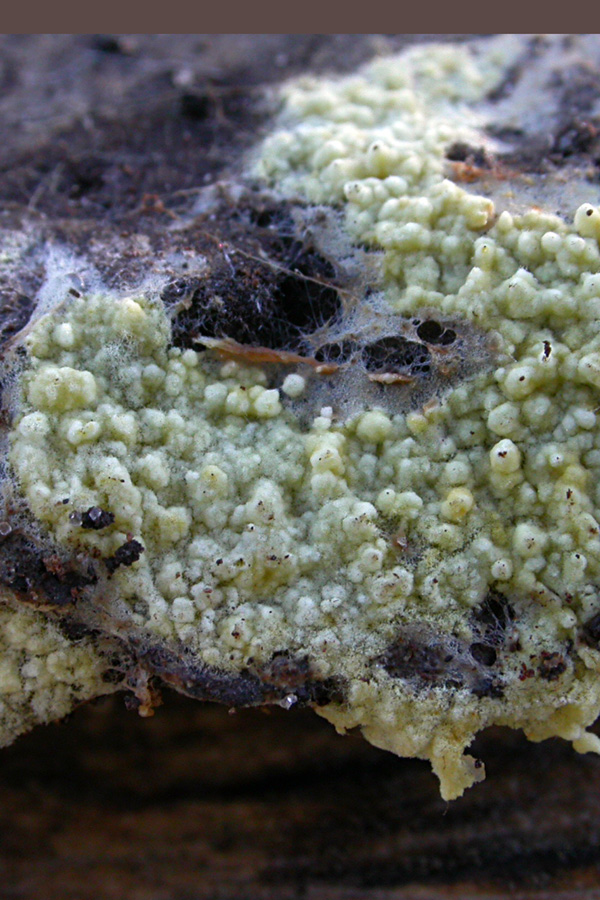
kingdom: Fungi
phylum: Basidiomycota
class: Agaricomycetes
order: Agaricales
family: Stephanosporaceae
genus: Lindtneria
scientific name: Lindtneria leucobryophila
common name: bleg citrushinde
